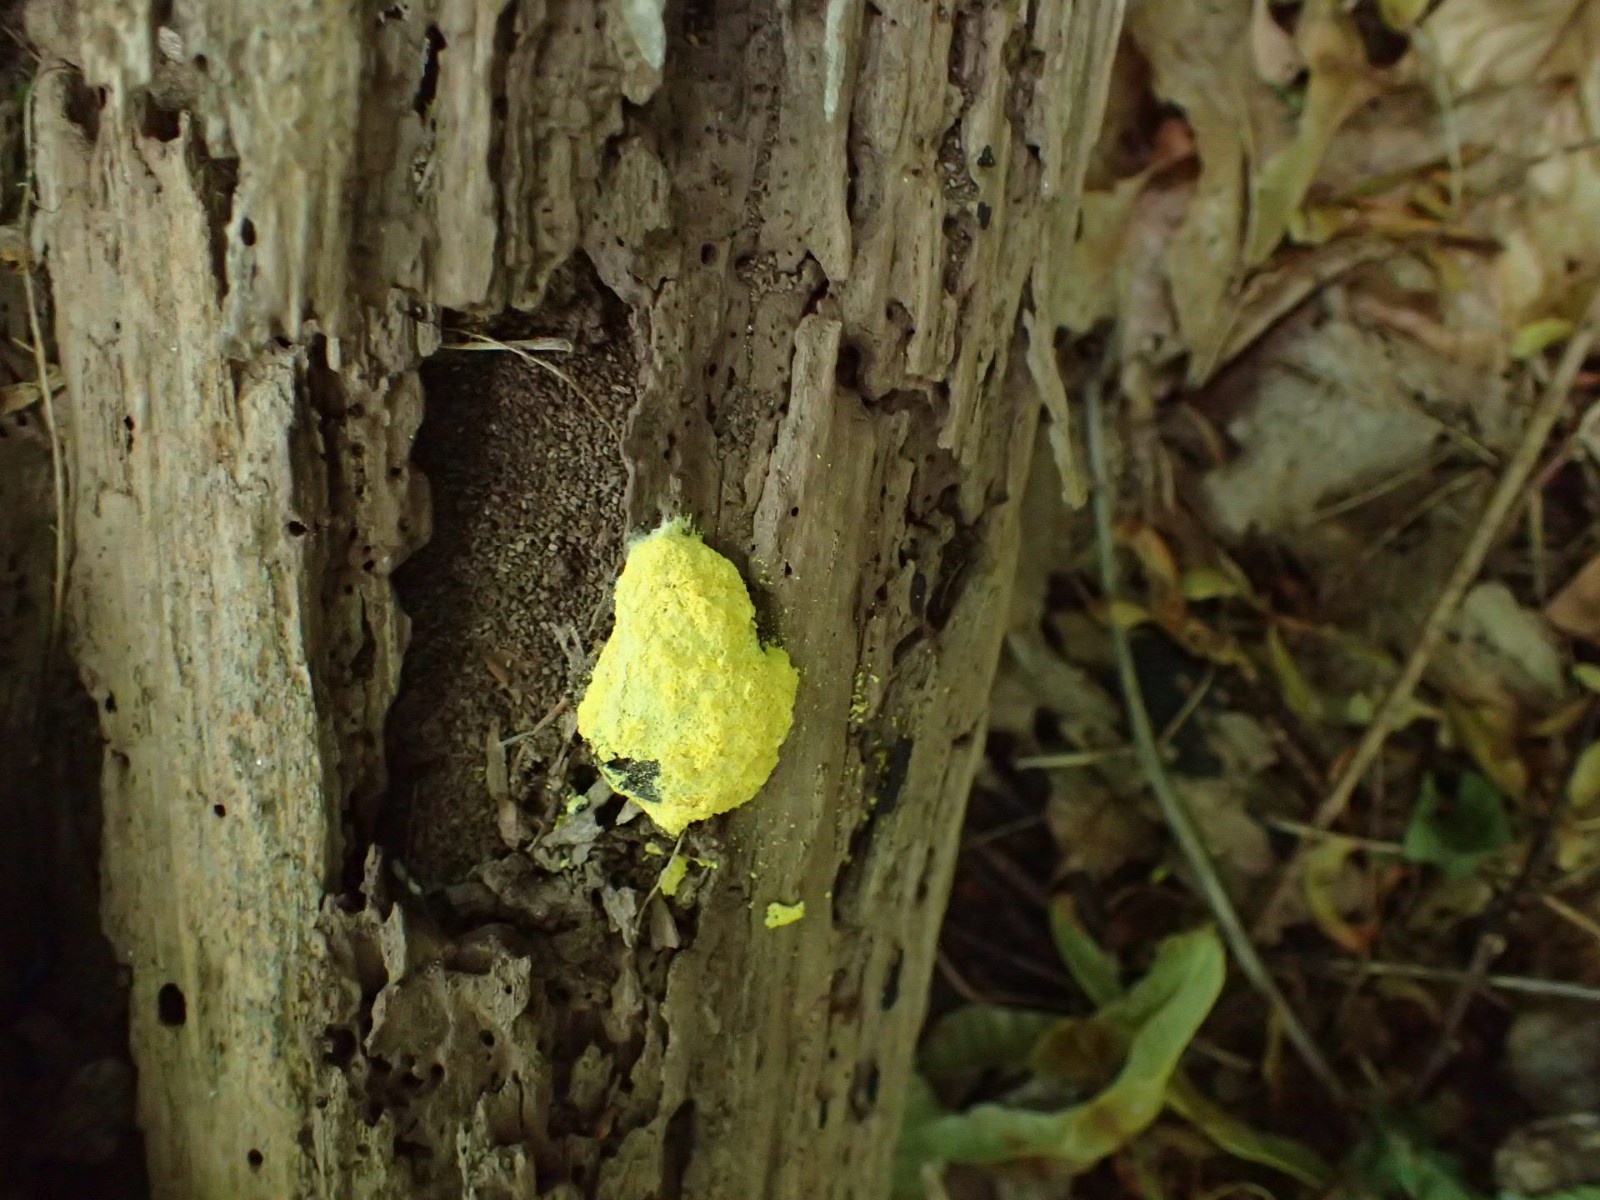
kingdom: Protozoa
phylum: Mycetozoa
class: Myxomycetes
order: Physarales
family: Physaraceae
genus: Fuligo
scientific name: Fuligo septica
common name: gul troldsmør
